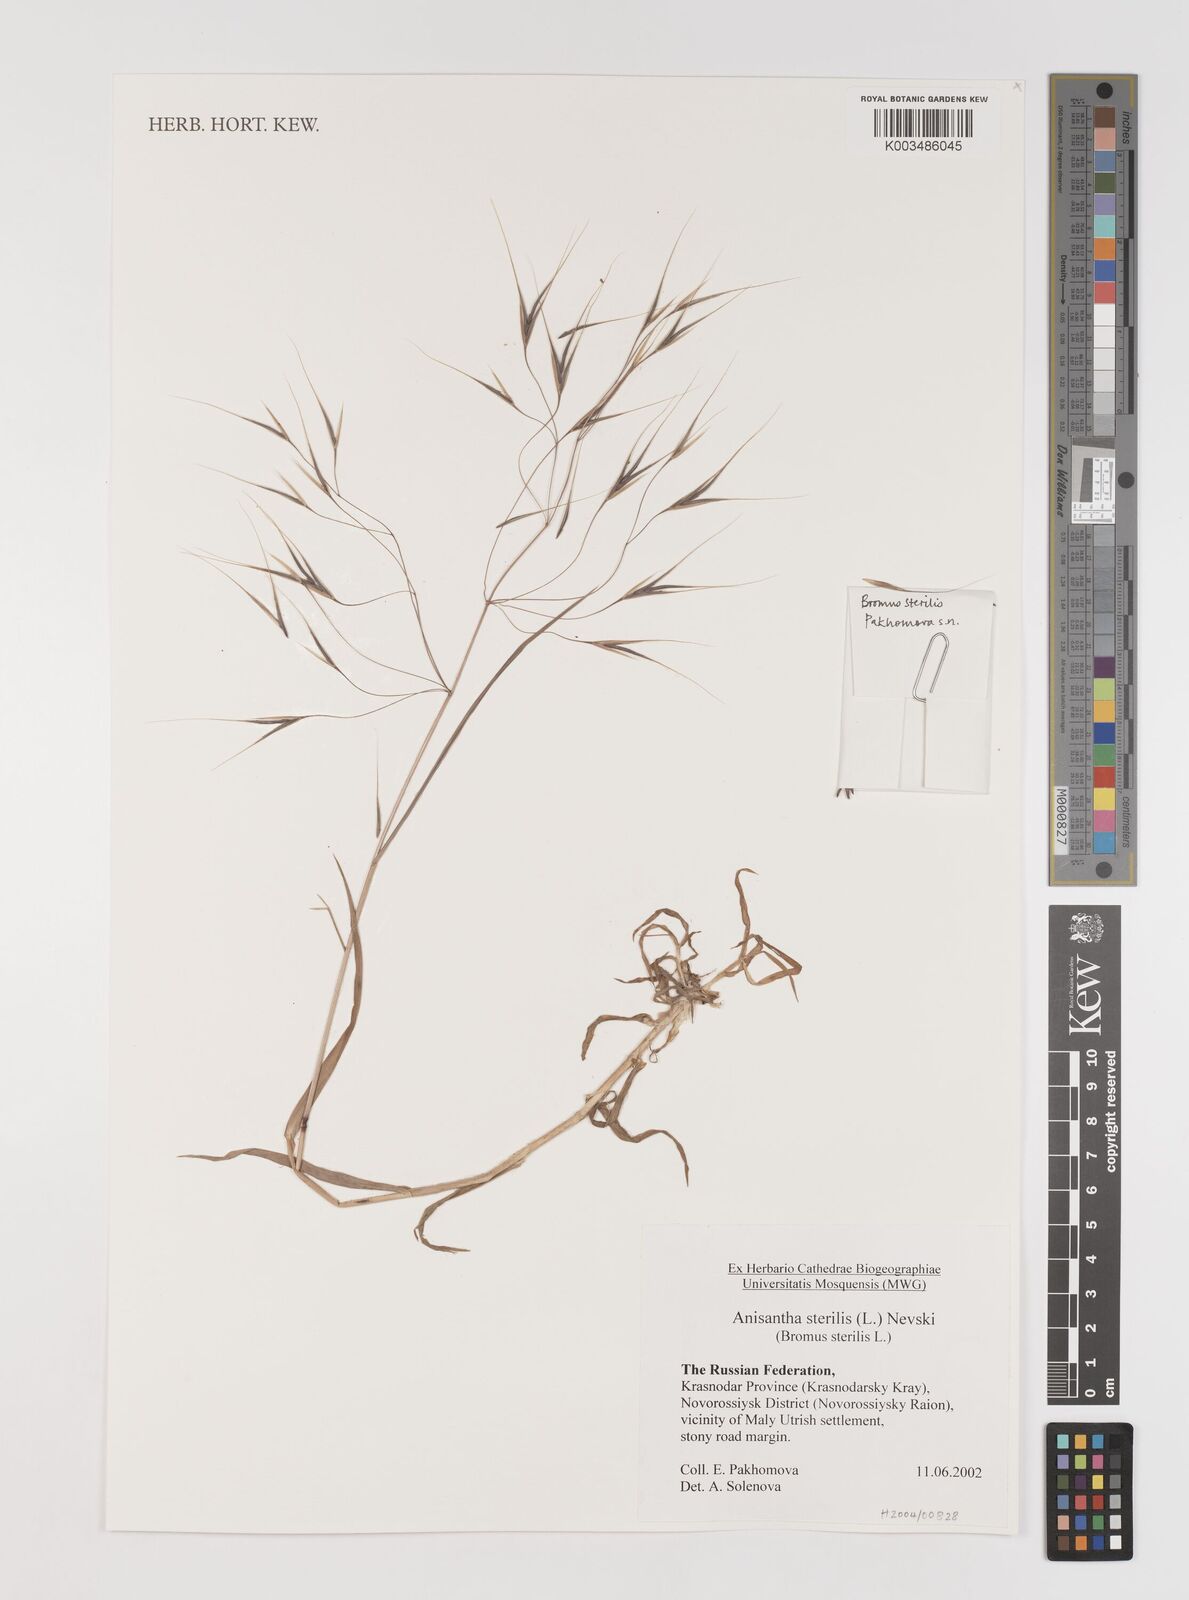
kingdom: Plantae
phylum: Tracheophyta
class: Liliopsida
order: Poales
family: Poaceae
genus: Bromus
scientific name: Bromus sterilis
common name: Poverty brome
